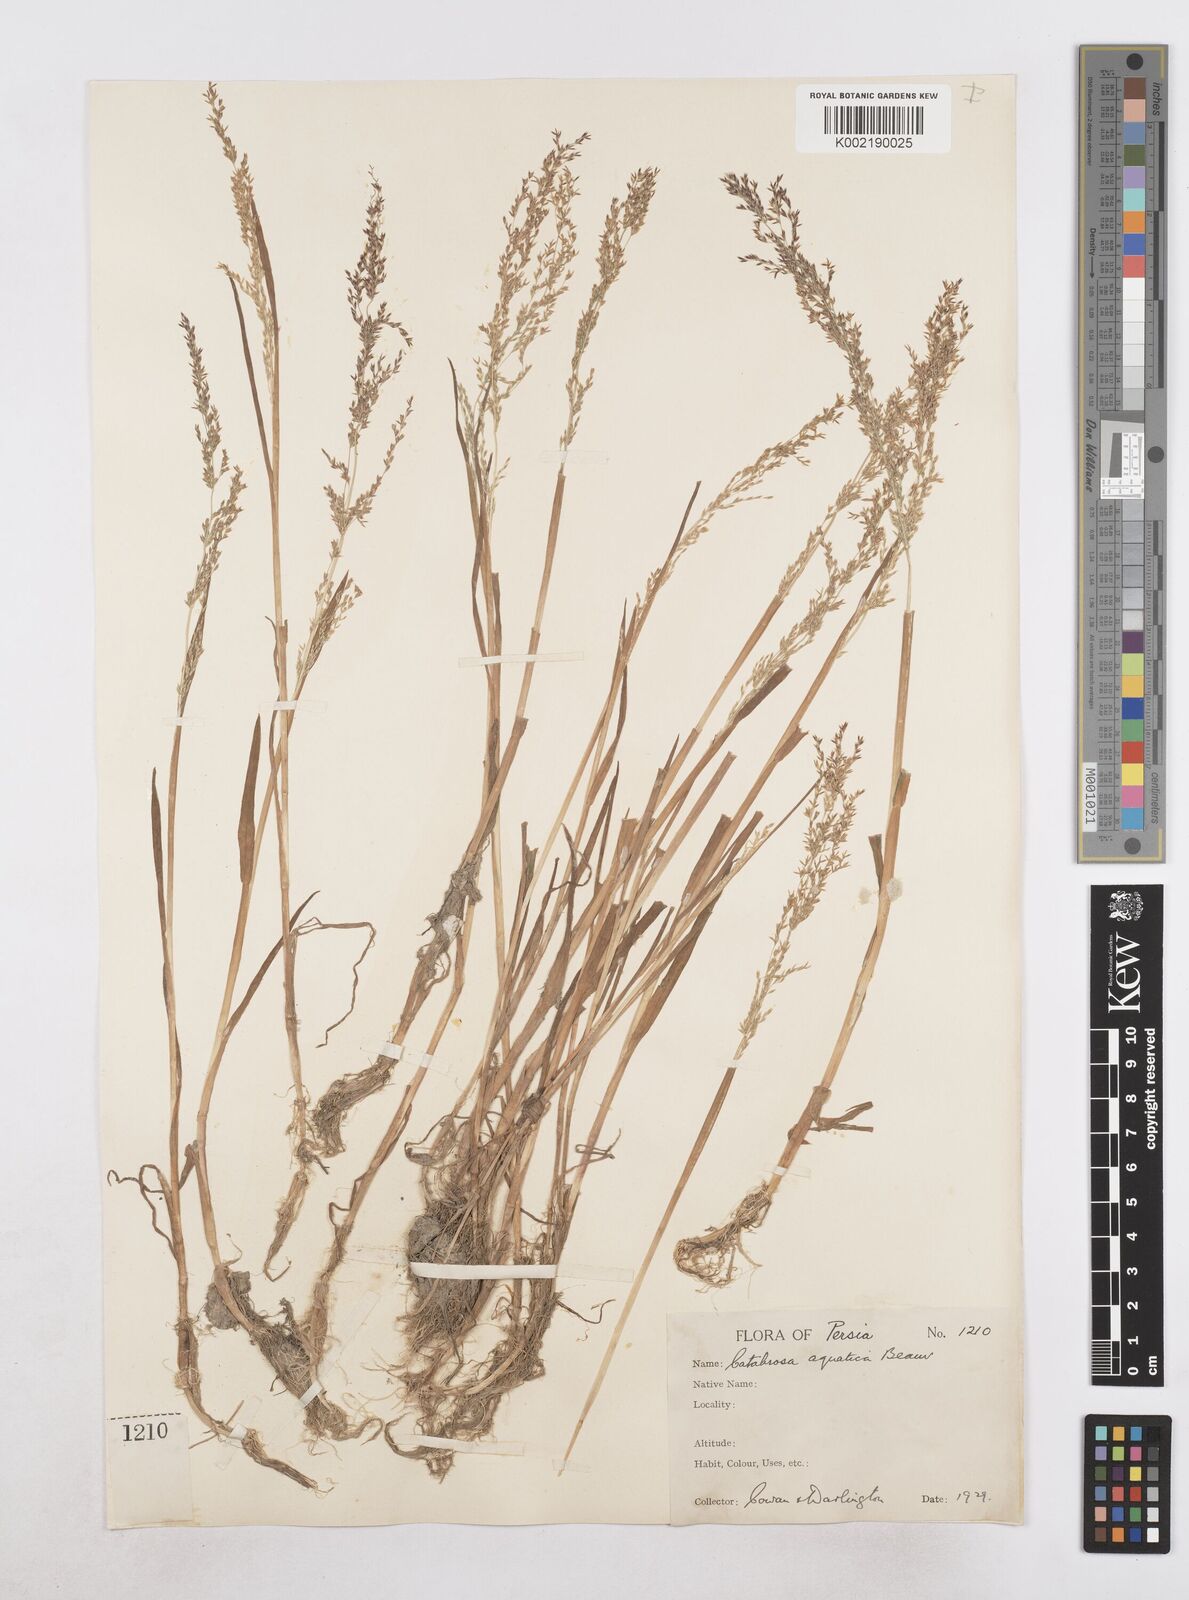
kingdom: Plantae
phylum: Tracheophyta
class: Liliopsida
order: Poales
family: Poaceae
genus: Catabrosa
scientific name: Catabrosa aquatica
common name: Whorl-grass
